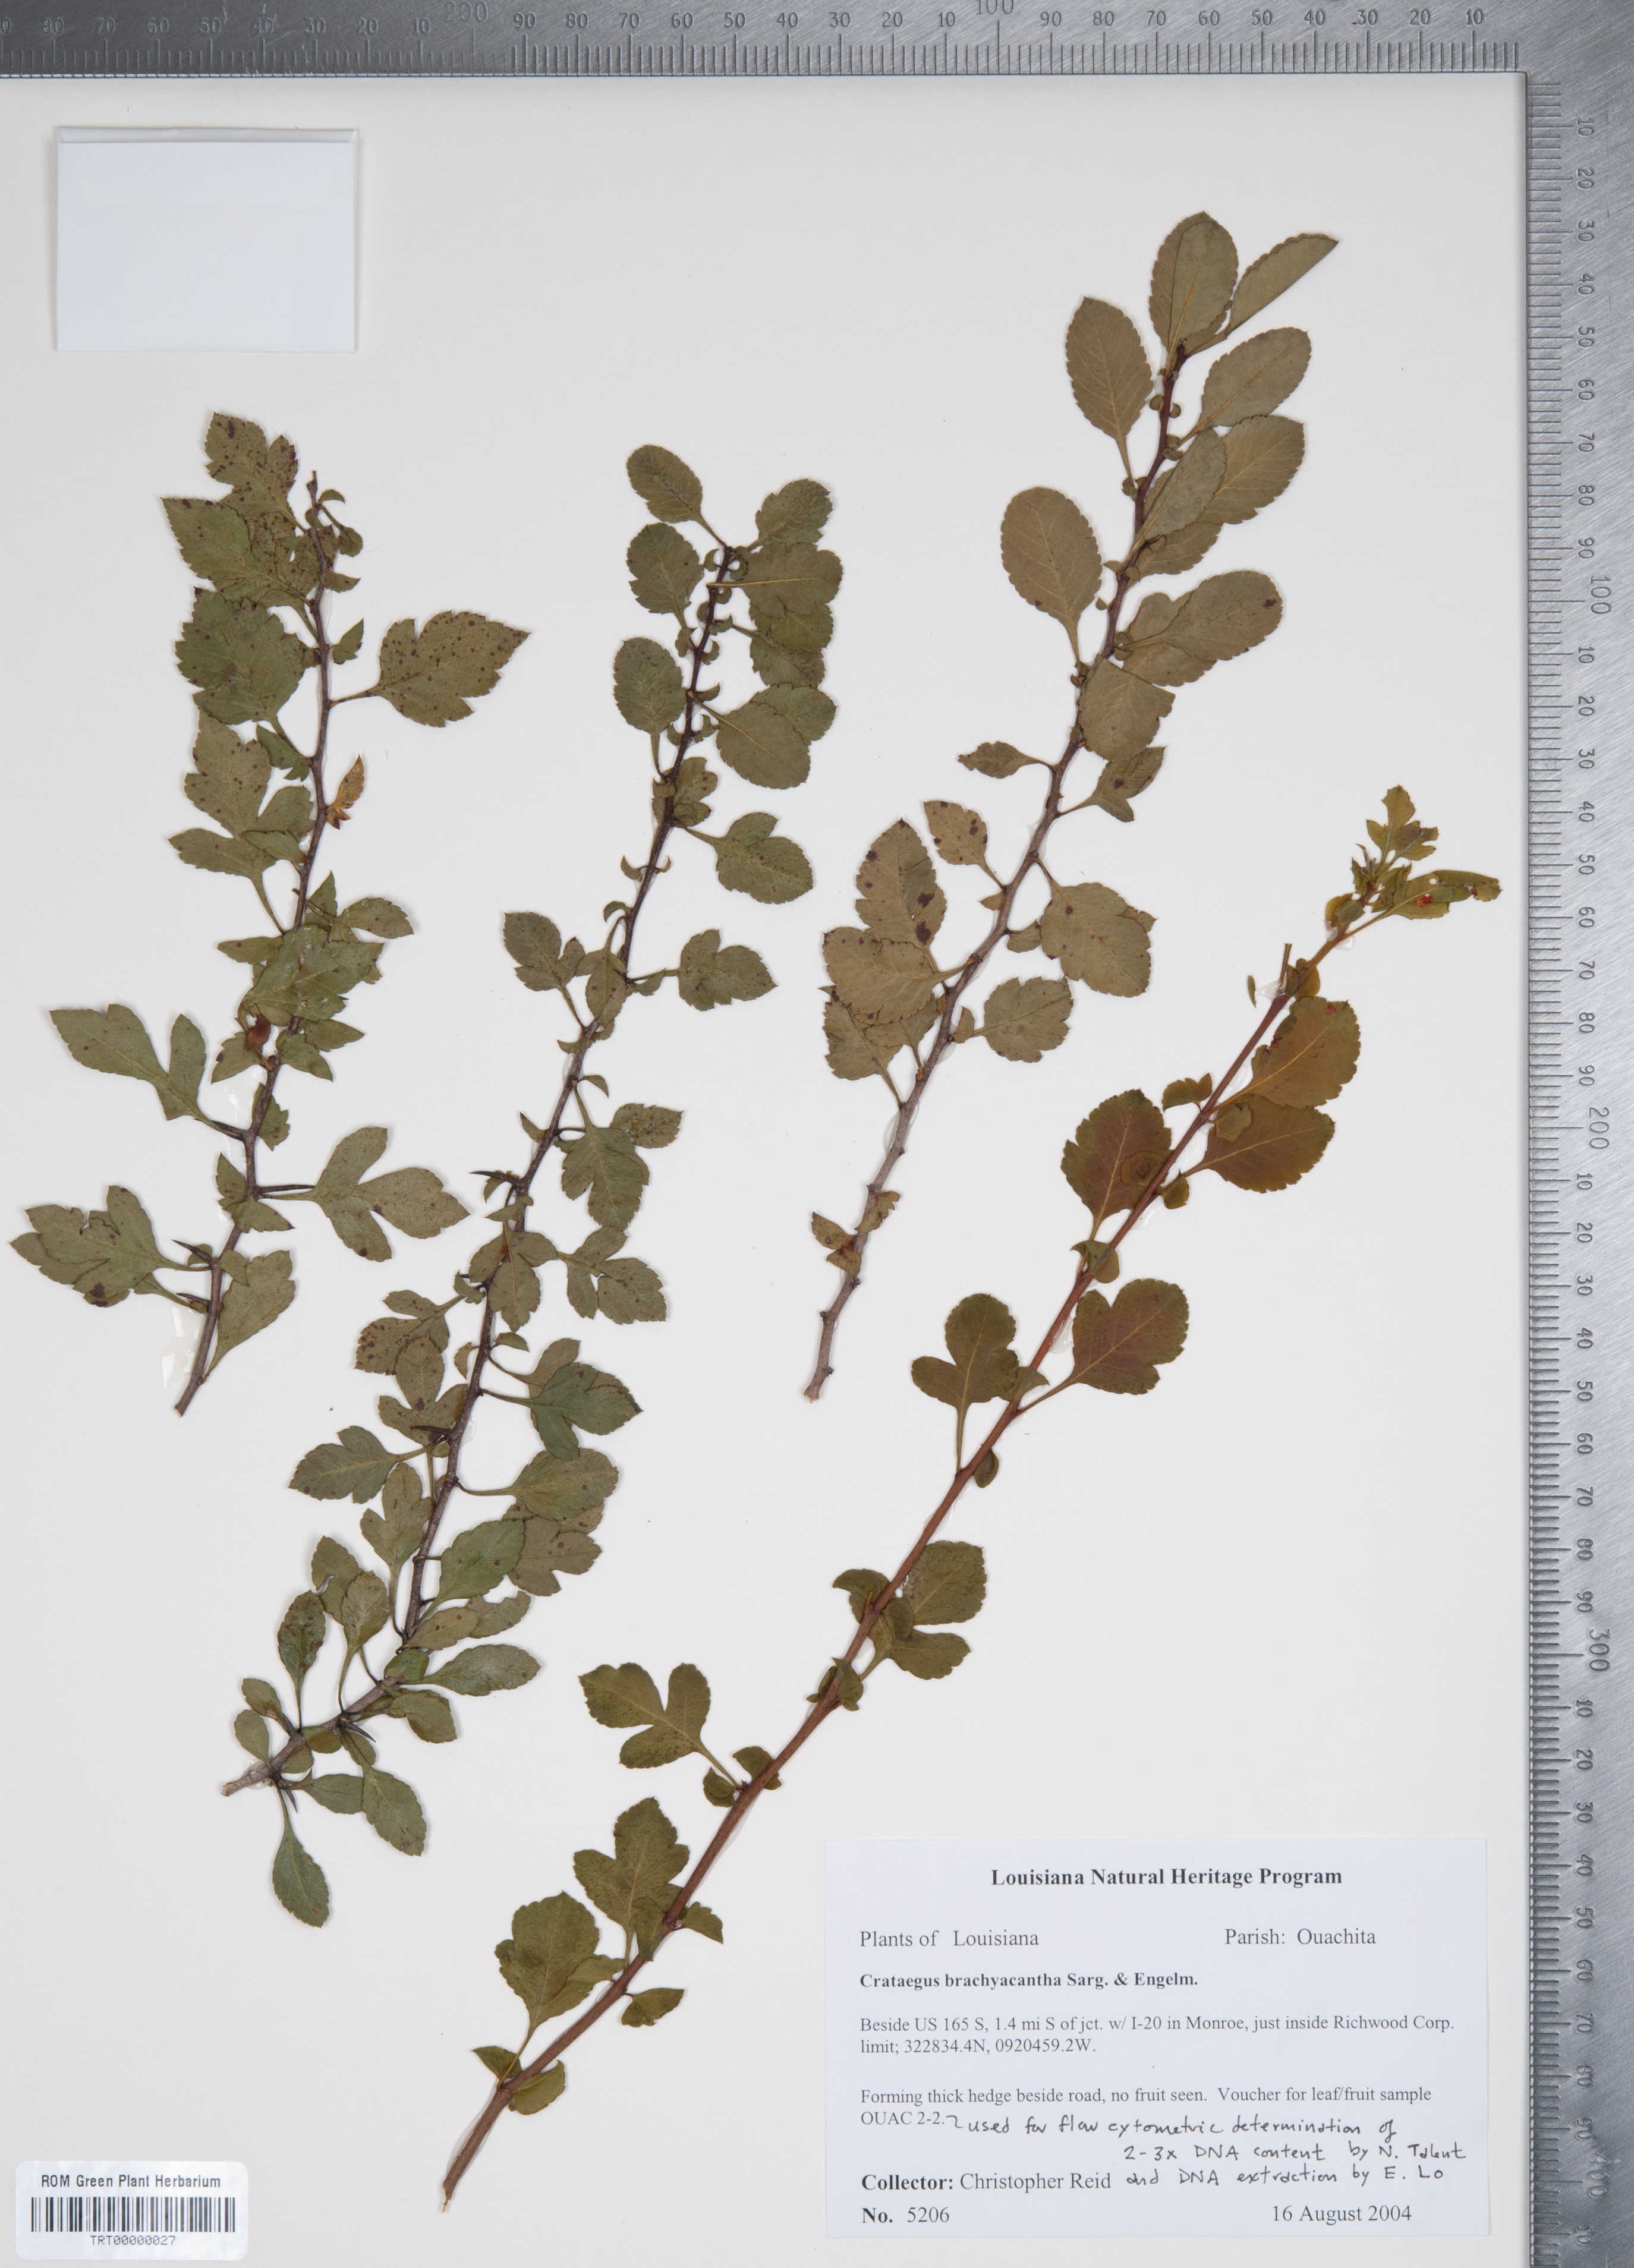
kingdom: Plantae
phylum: Tracheophyta
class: Magnoliopsida
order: Rosales
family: Rosaceae
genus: Crataegus
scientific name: Crataegus brachyacantha
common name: Blueberry-hawthorn
